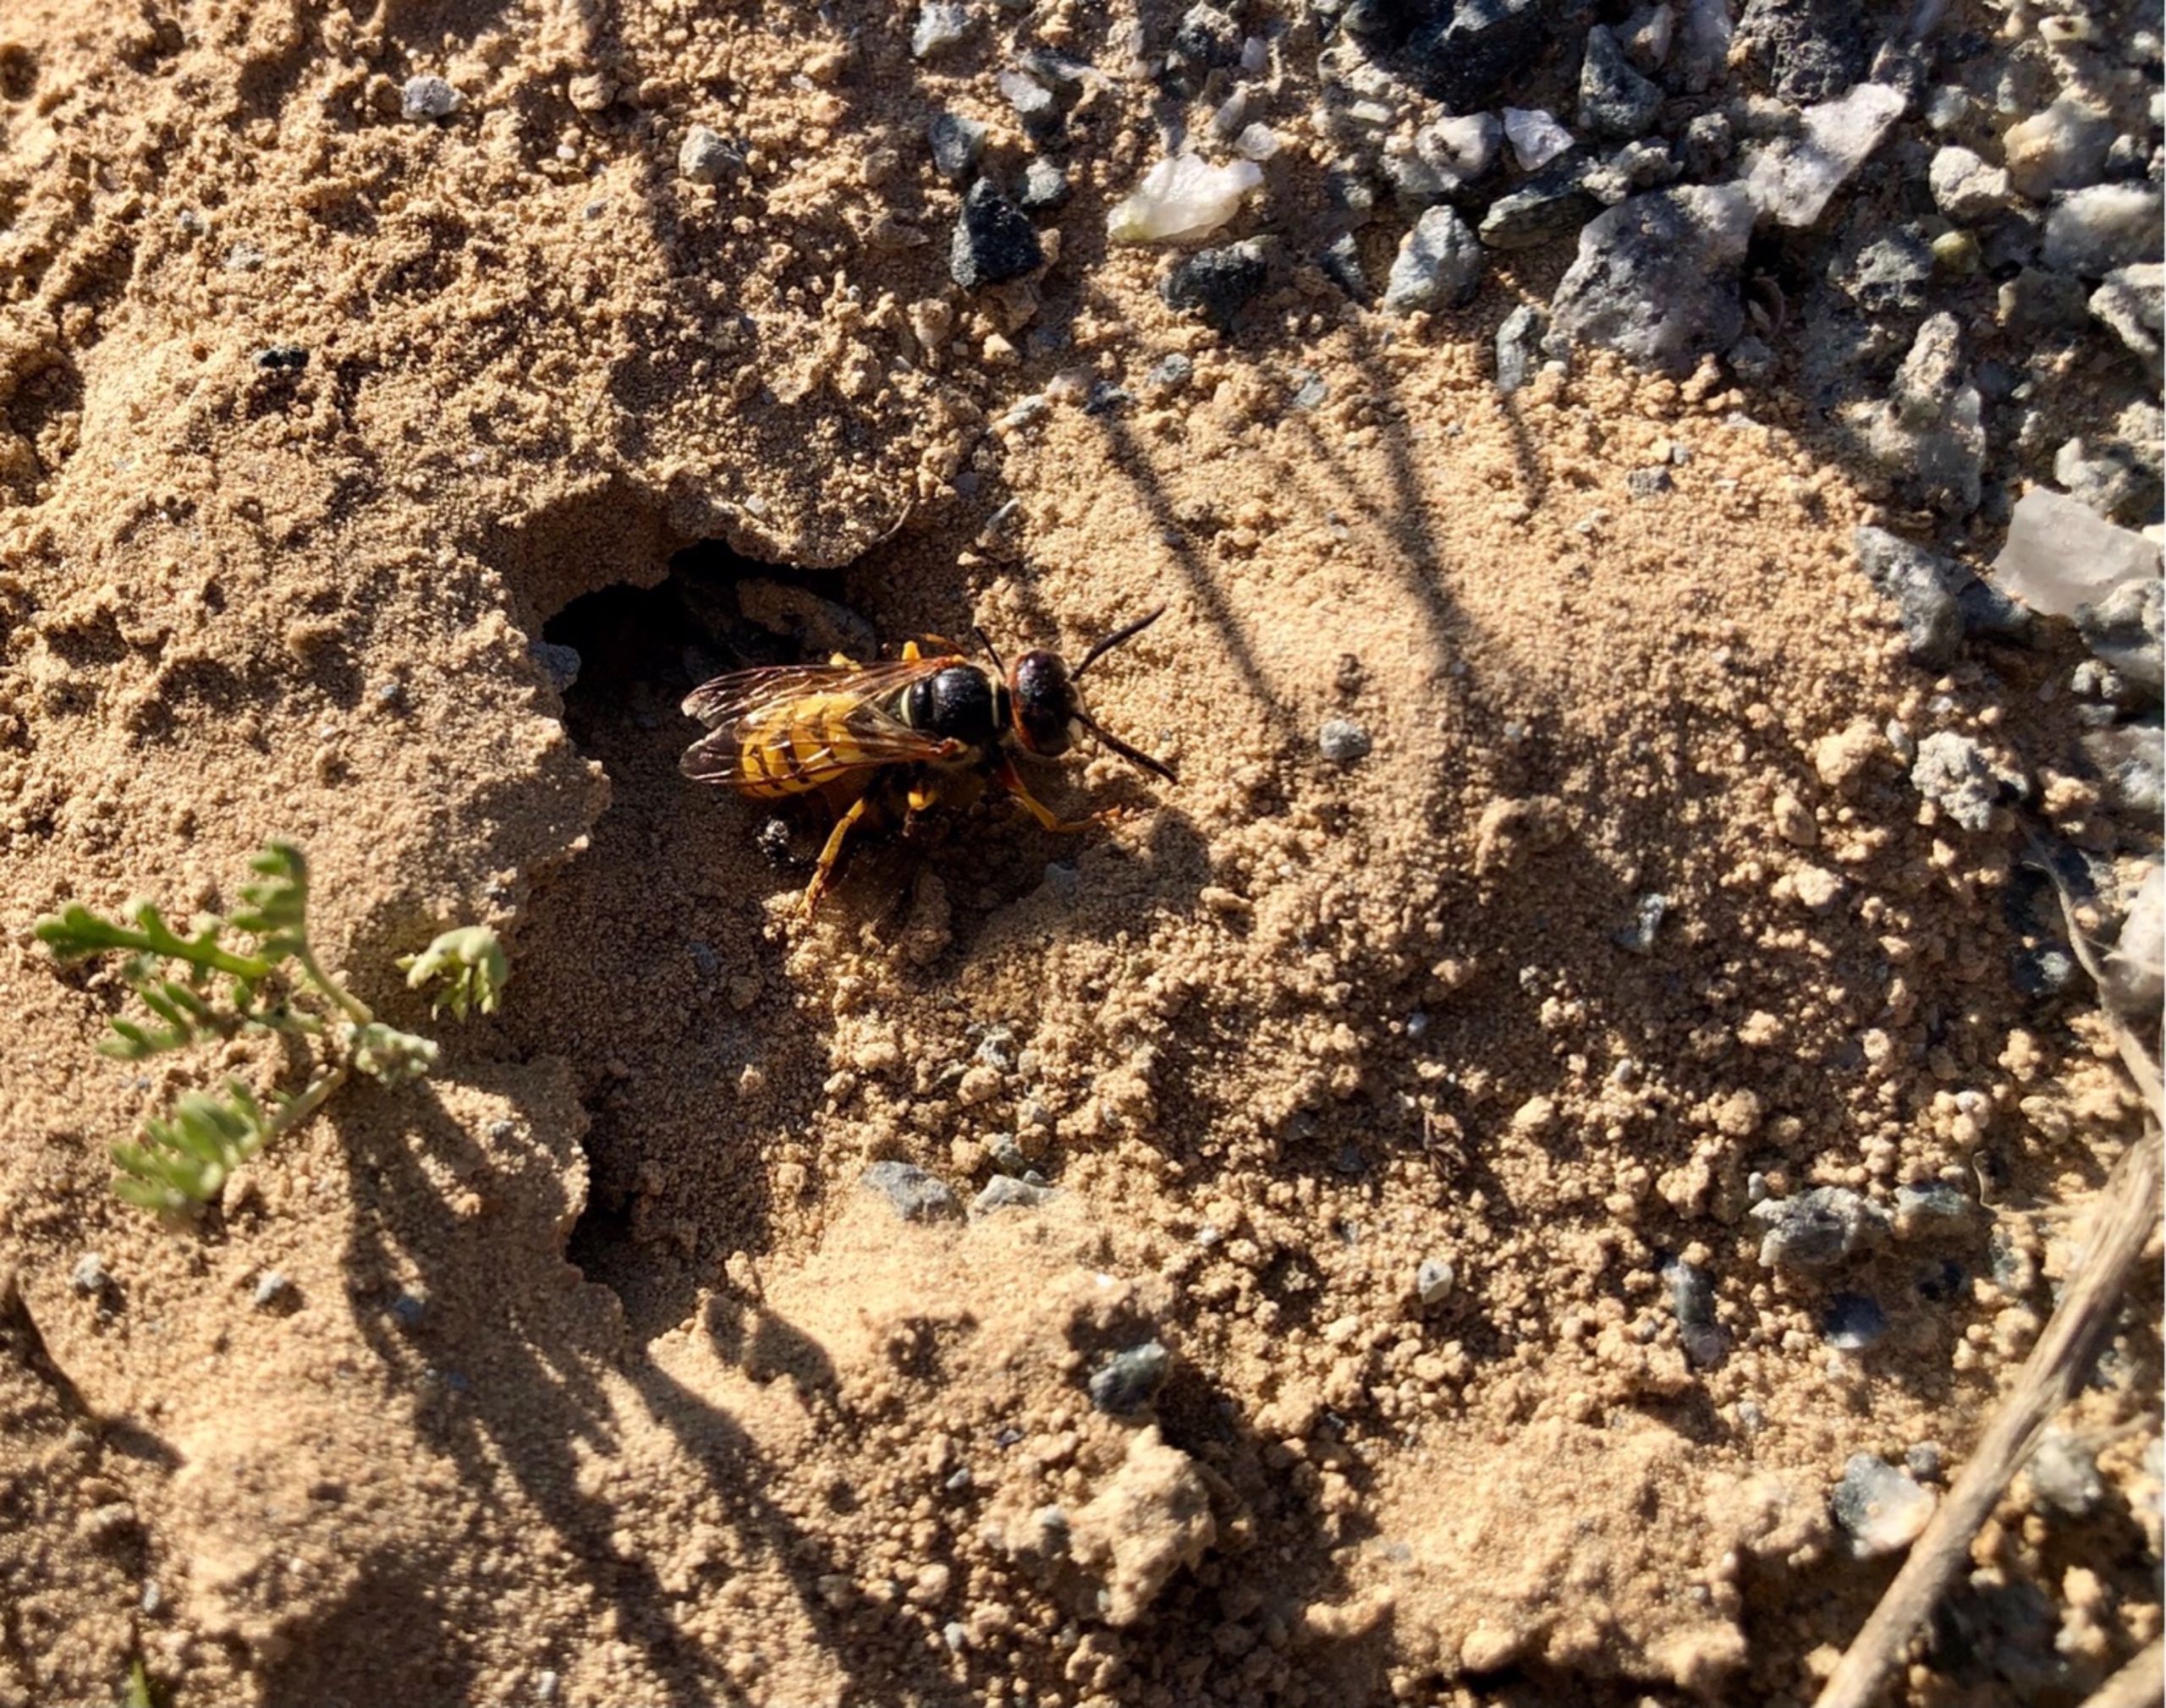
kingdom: Animalia
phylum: Arthropoda
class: Insecta
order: Hymenoptera
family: Crabronidae
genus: Philanthus
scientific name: Philanthus triangulum
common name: Biulv
